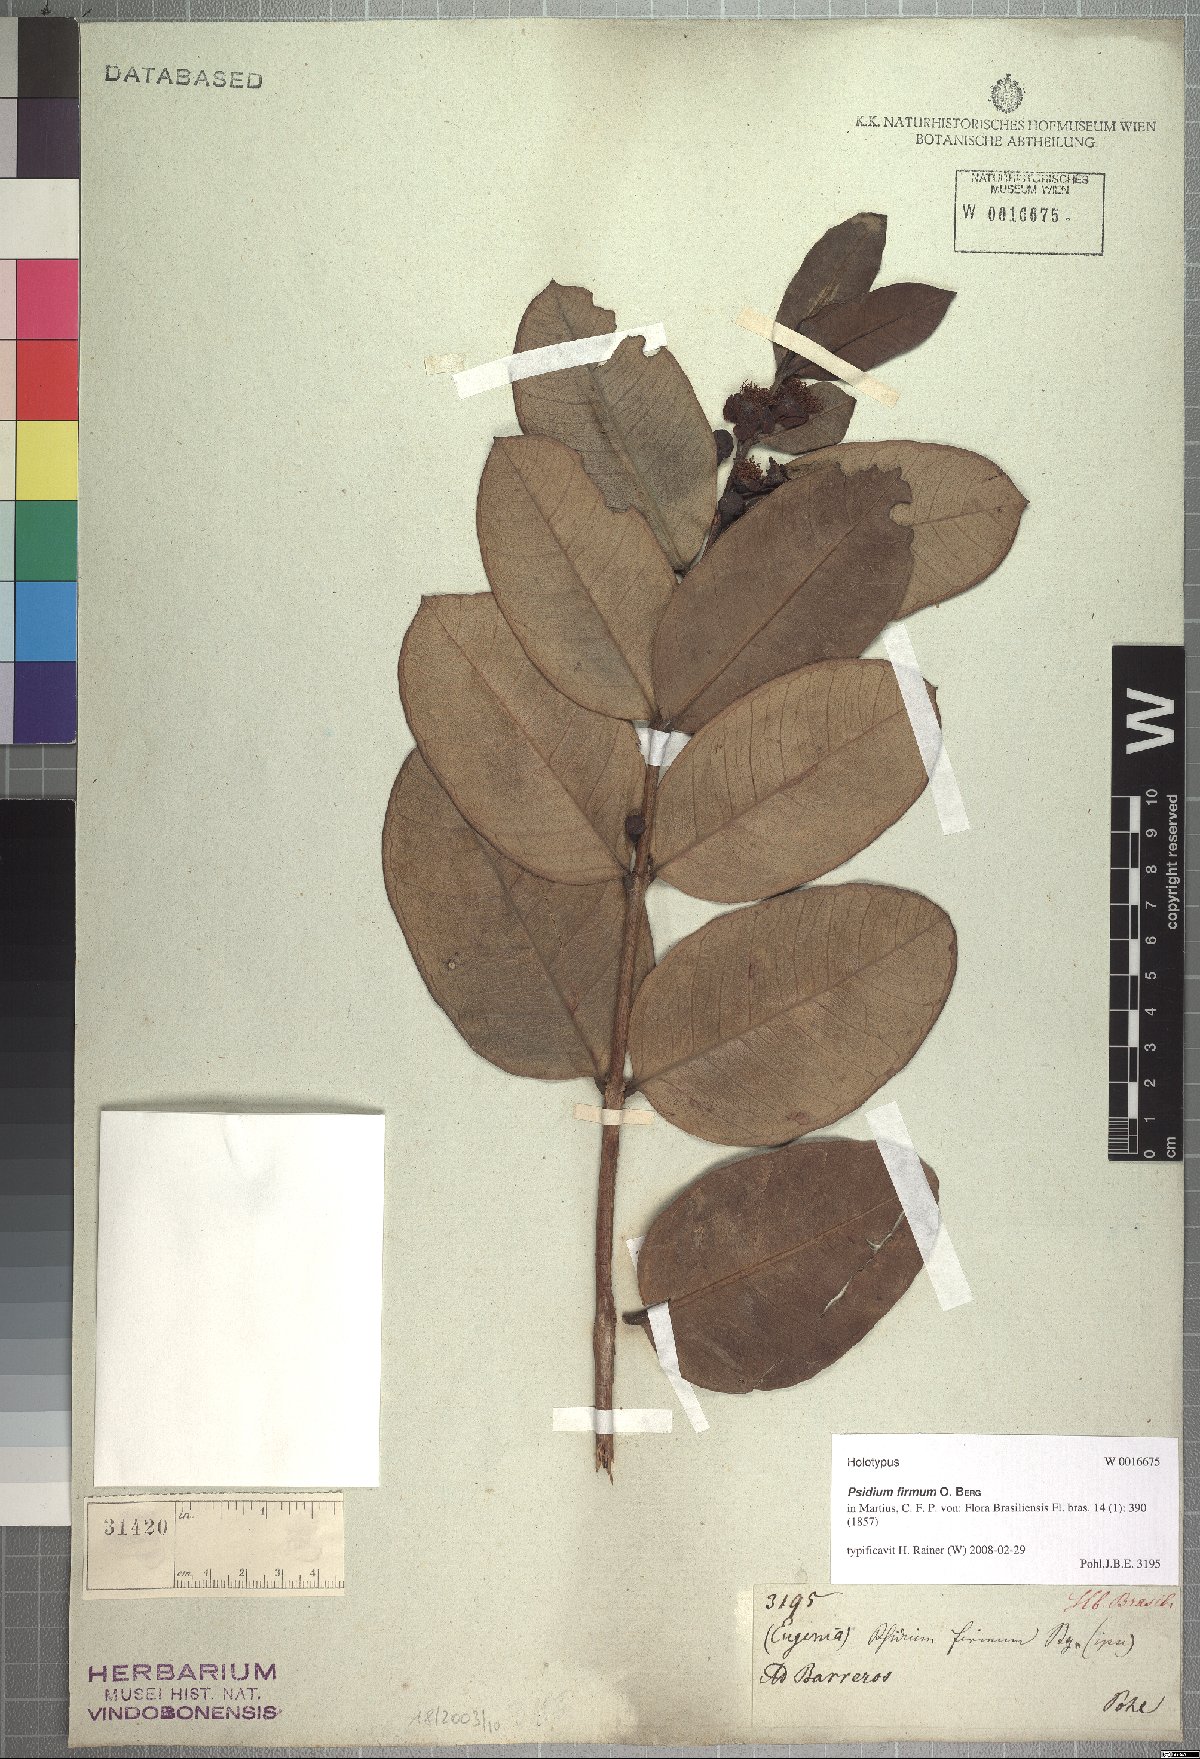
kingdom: Plantae
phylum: Tracheophyta
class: Magnoliopsida
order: Myrtales
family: Myrtaceae
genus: Psidium
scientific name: Psidium firmum
